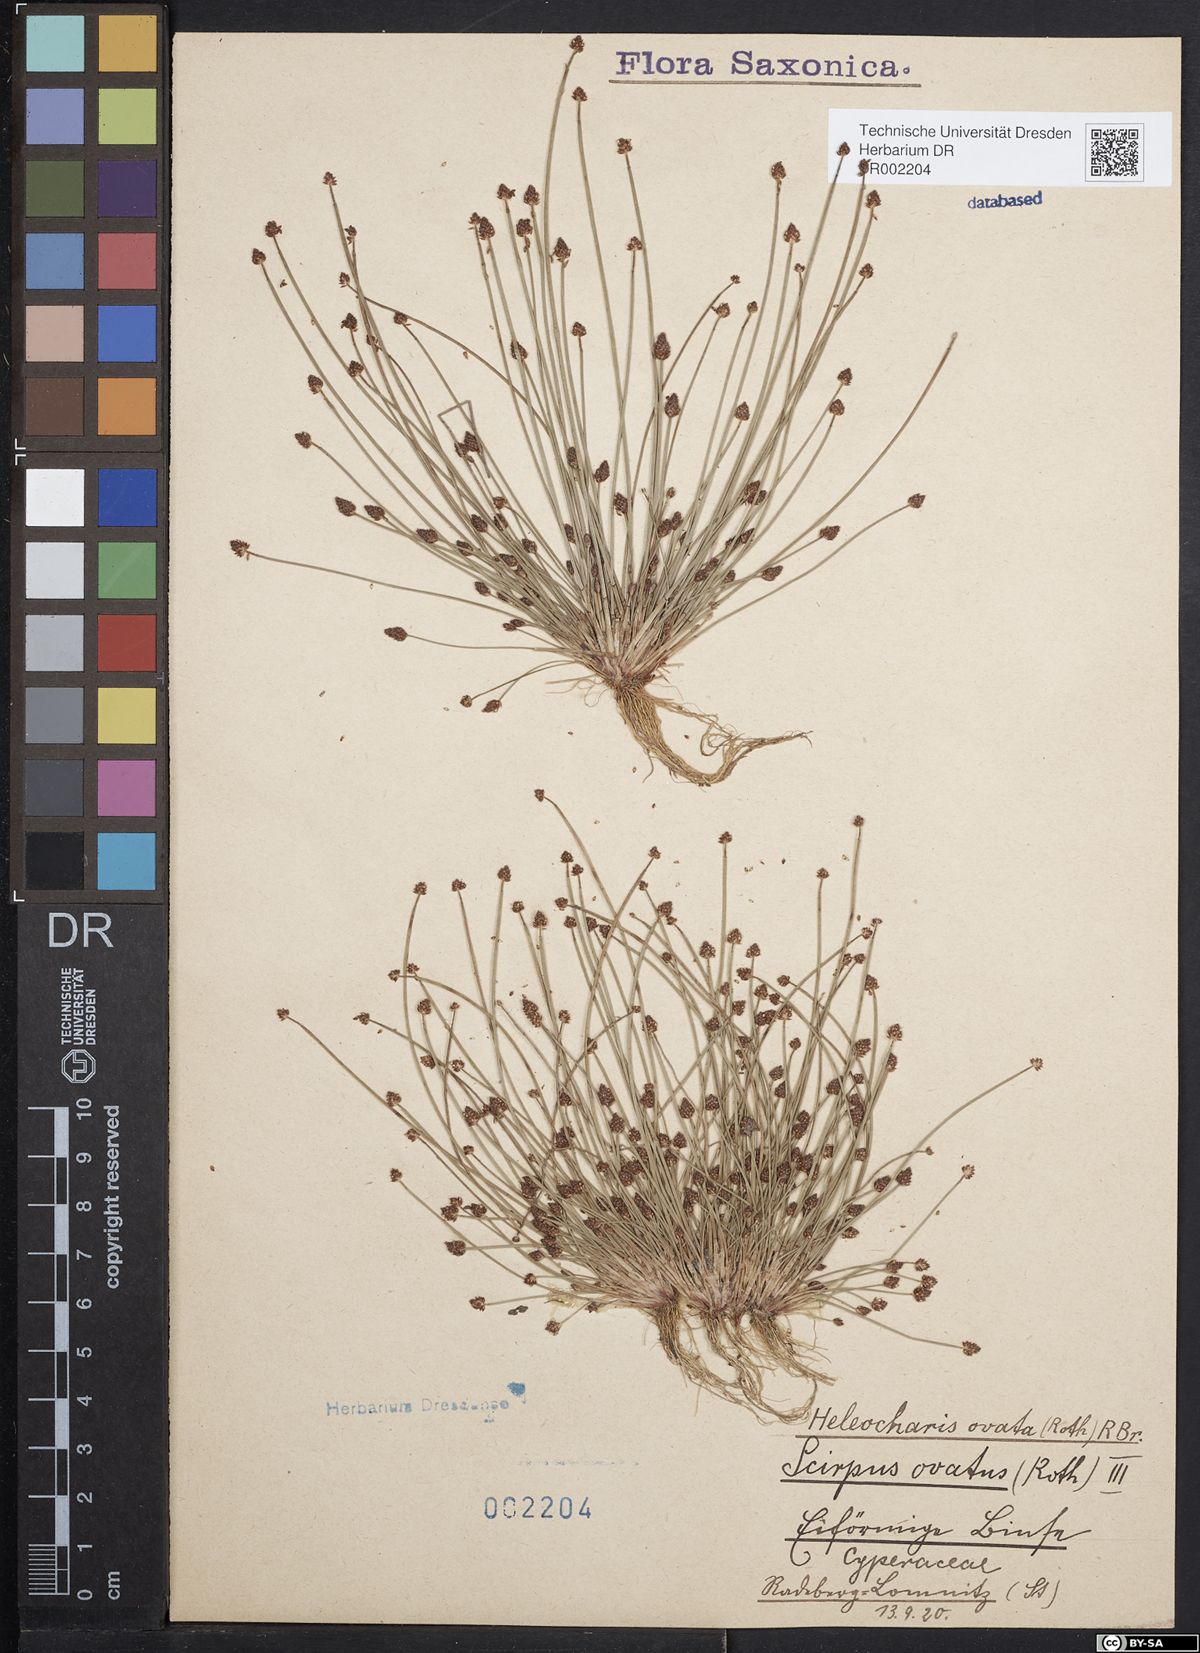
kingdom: Plantae
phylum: Tracheophyta
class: Liliopsida
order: Poales
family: Cyperaceae
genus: Eleocharis
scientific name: Eleocharis ovata
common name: Oval spike-rush
